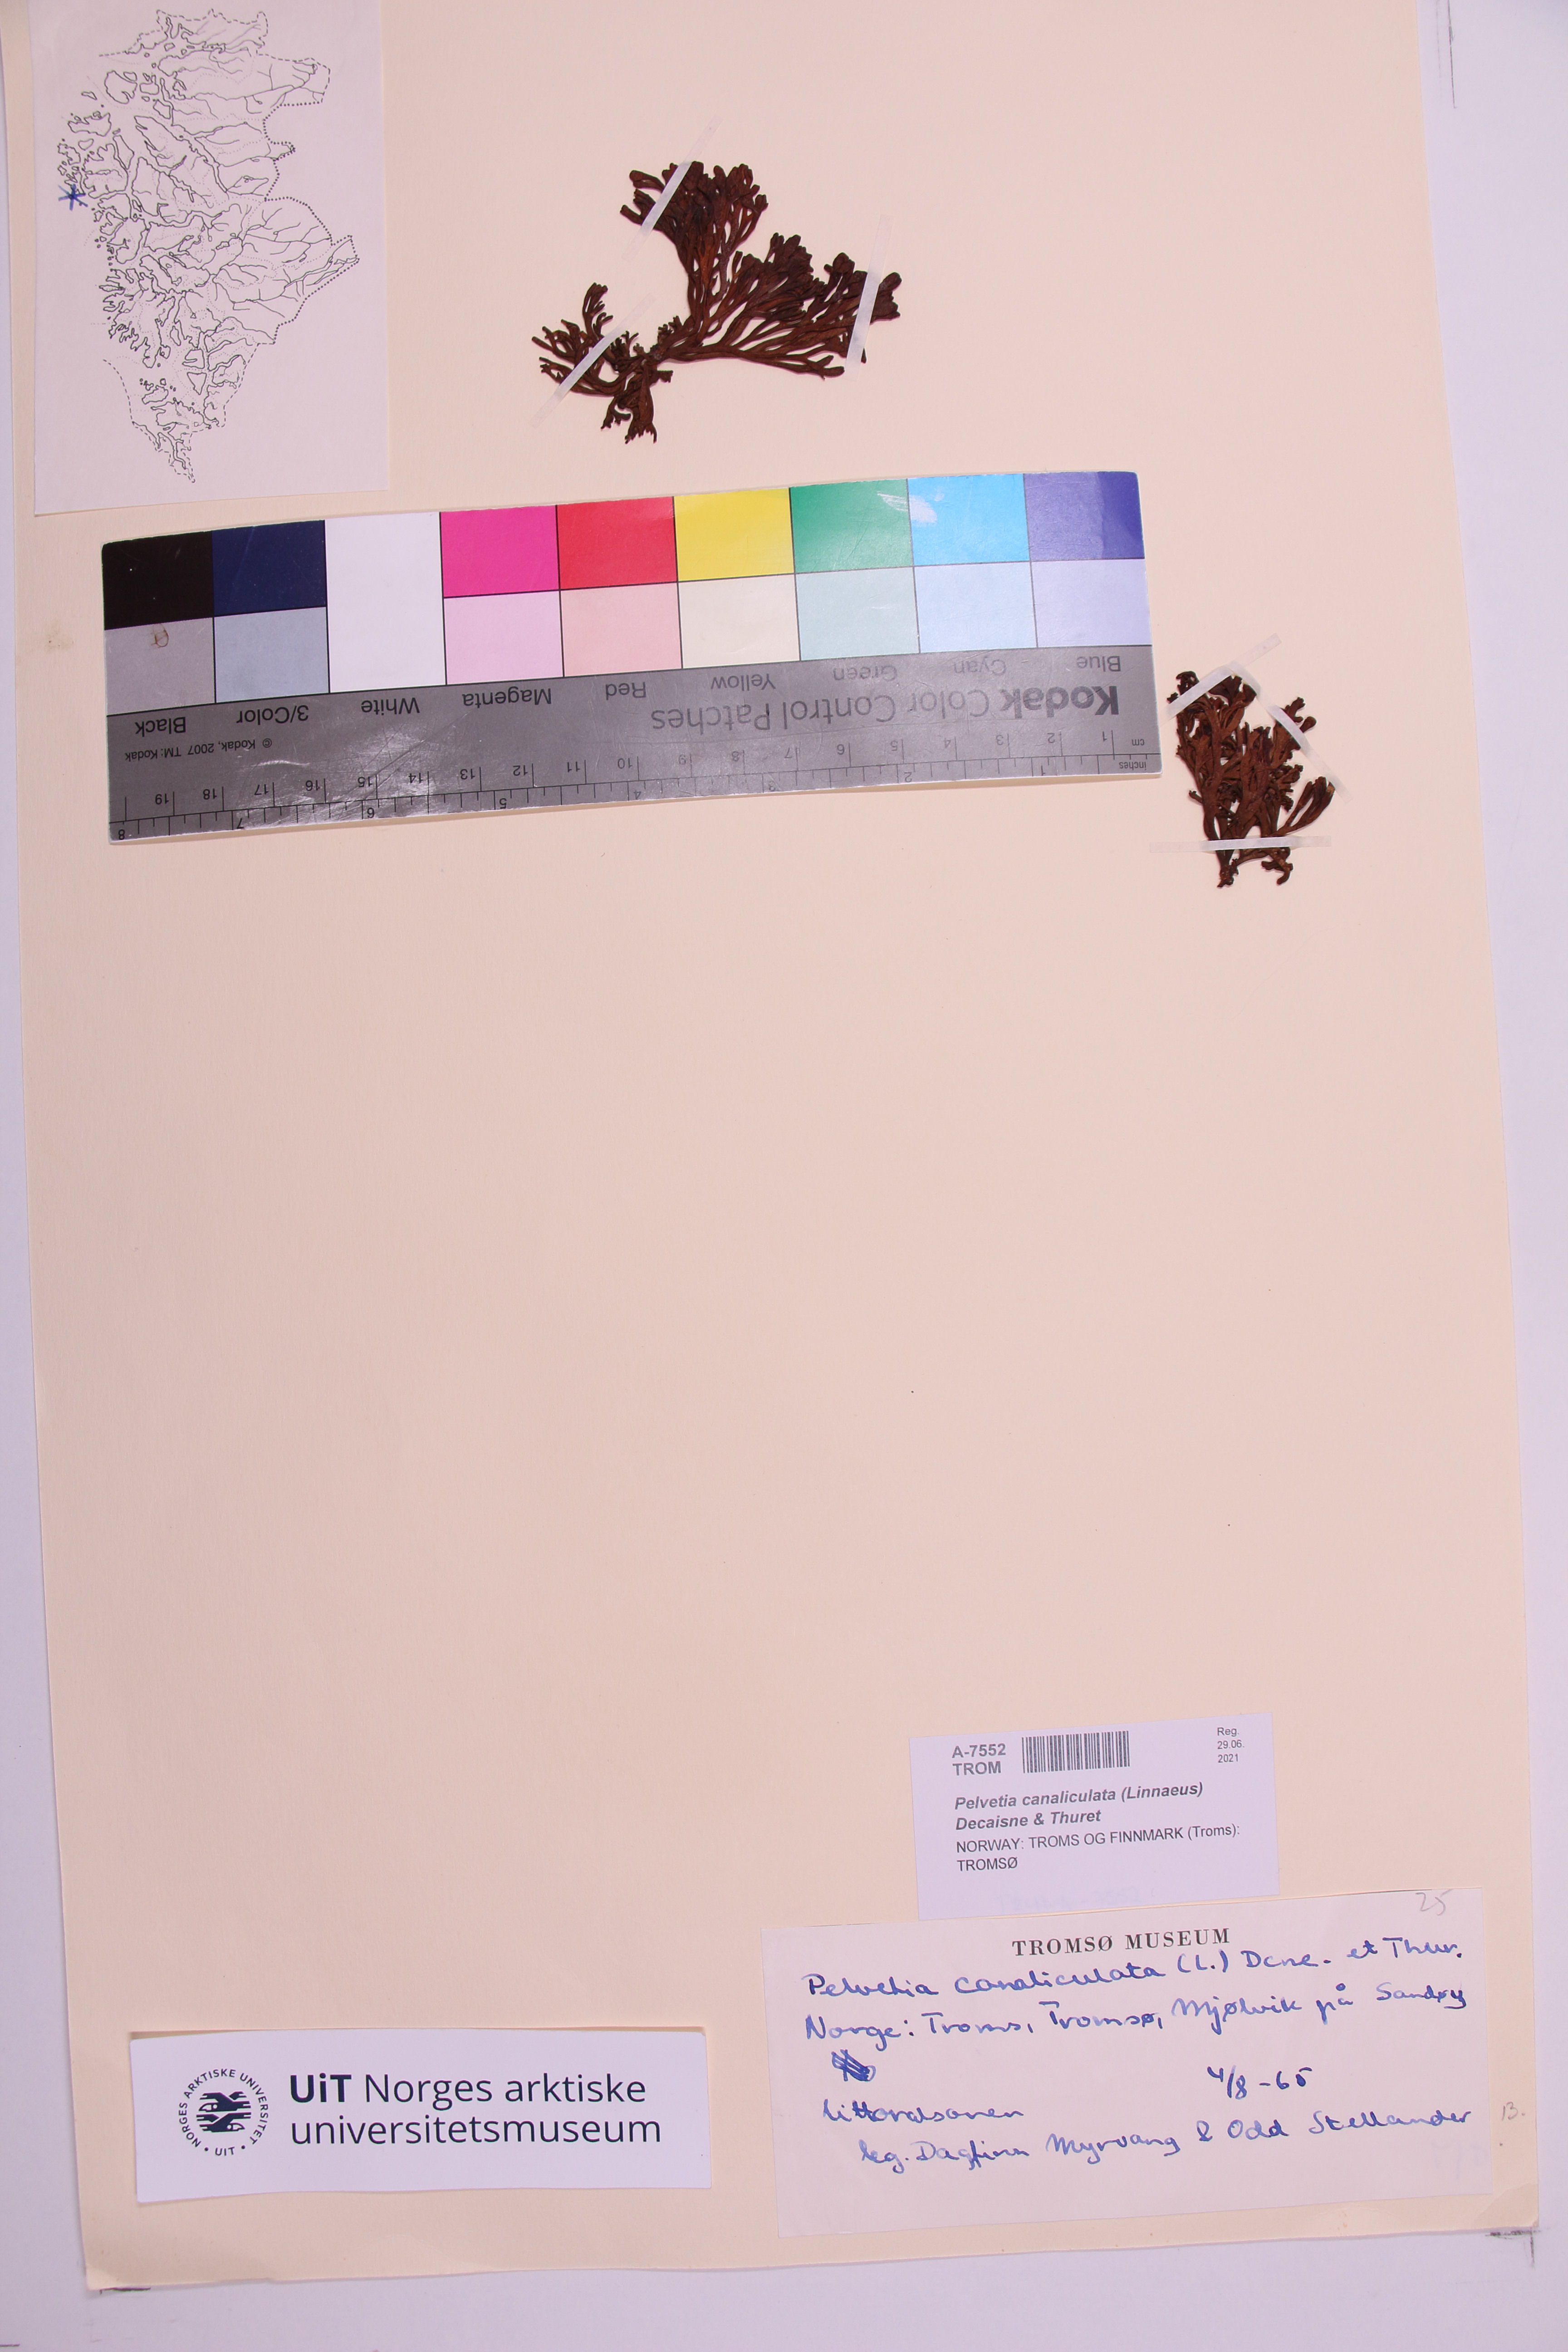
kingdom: Chromista
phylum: Ochrophyta
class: Phaeophyceae
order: Fucales
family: Fucaceae
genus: Pelvetia
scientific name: Pelvetia canaliculata
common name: Channelled wrack
